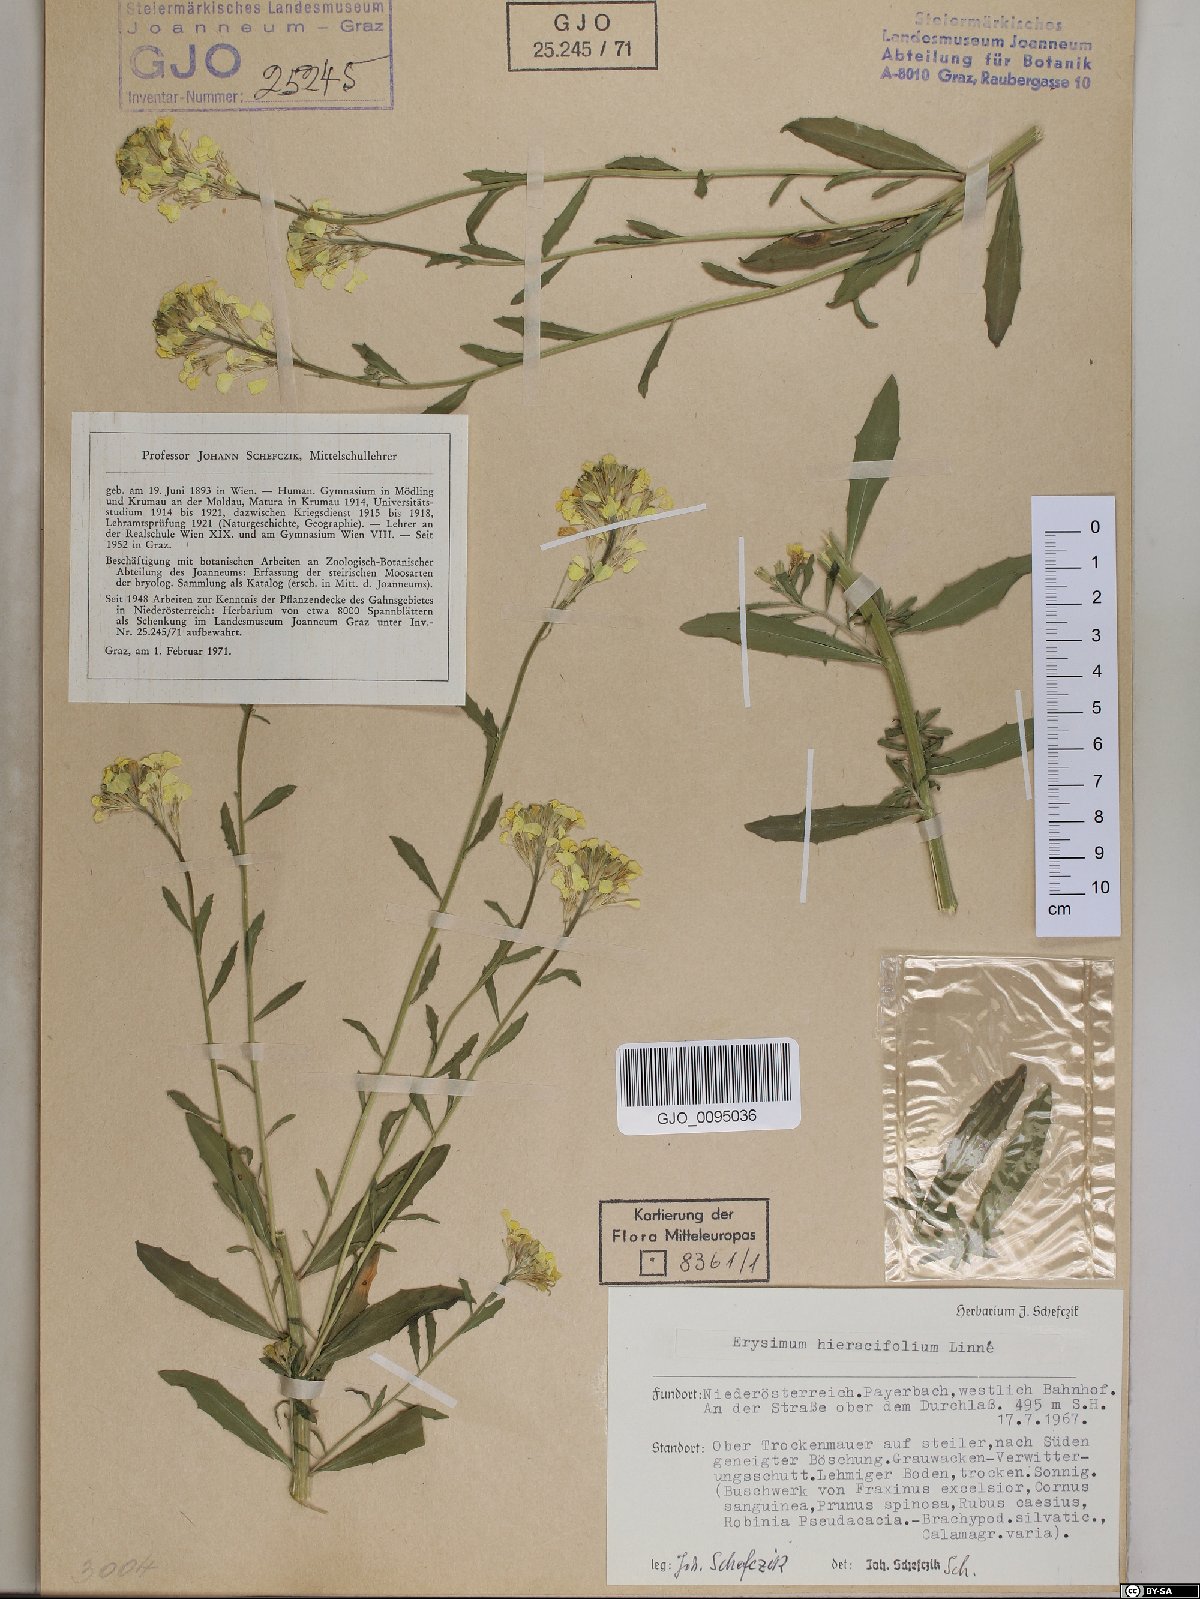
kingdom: Plantae
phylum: Tracheophyta
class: Magnoliopsida
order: Brassicales
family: Brassicaceae
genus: Erysimum
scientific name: Erysimum hieraciifolium
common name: European wallflower
